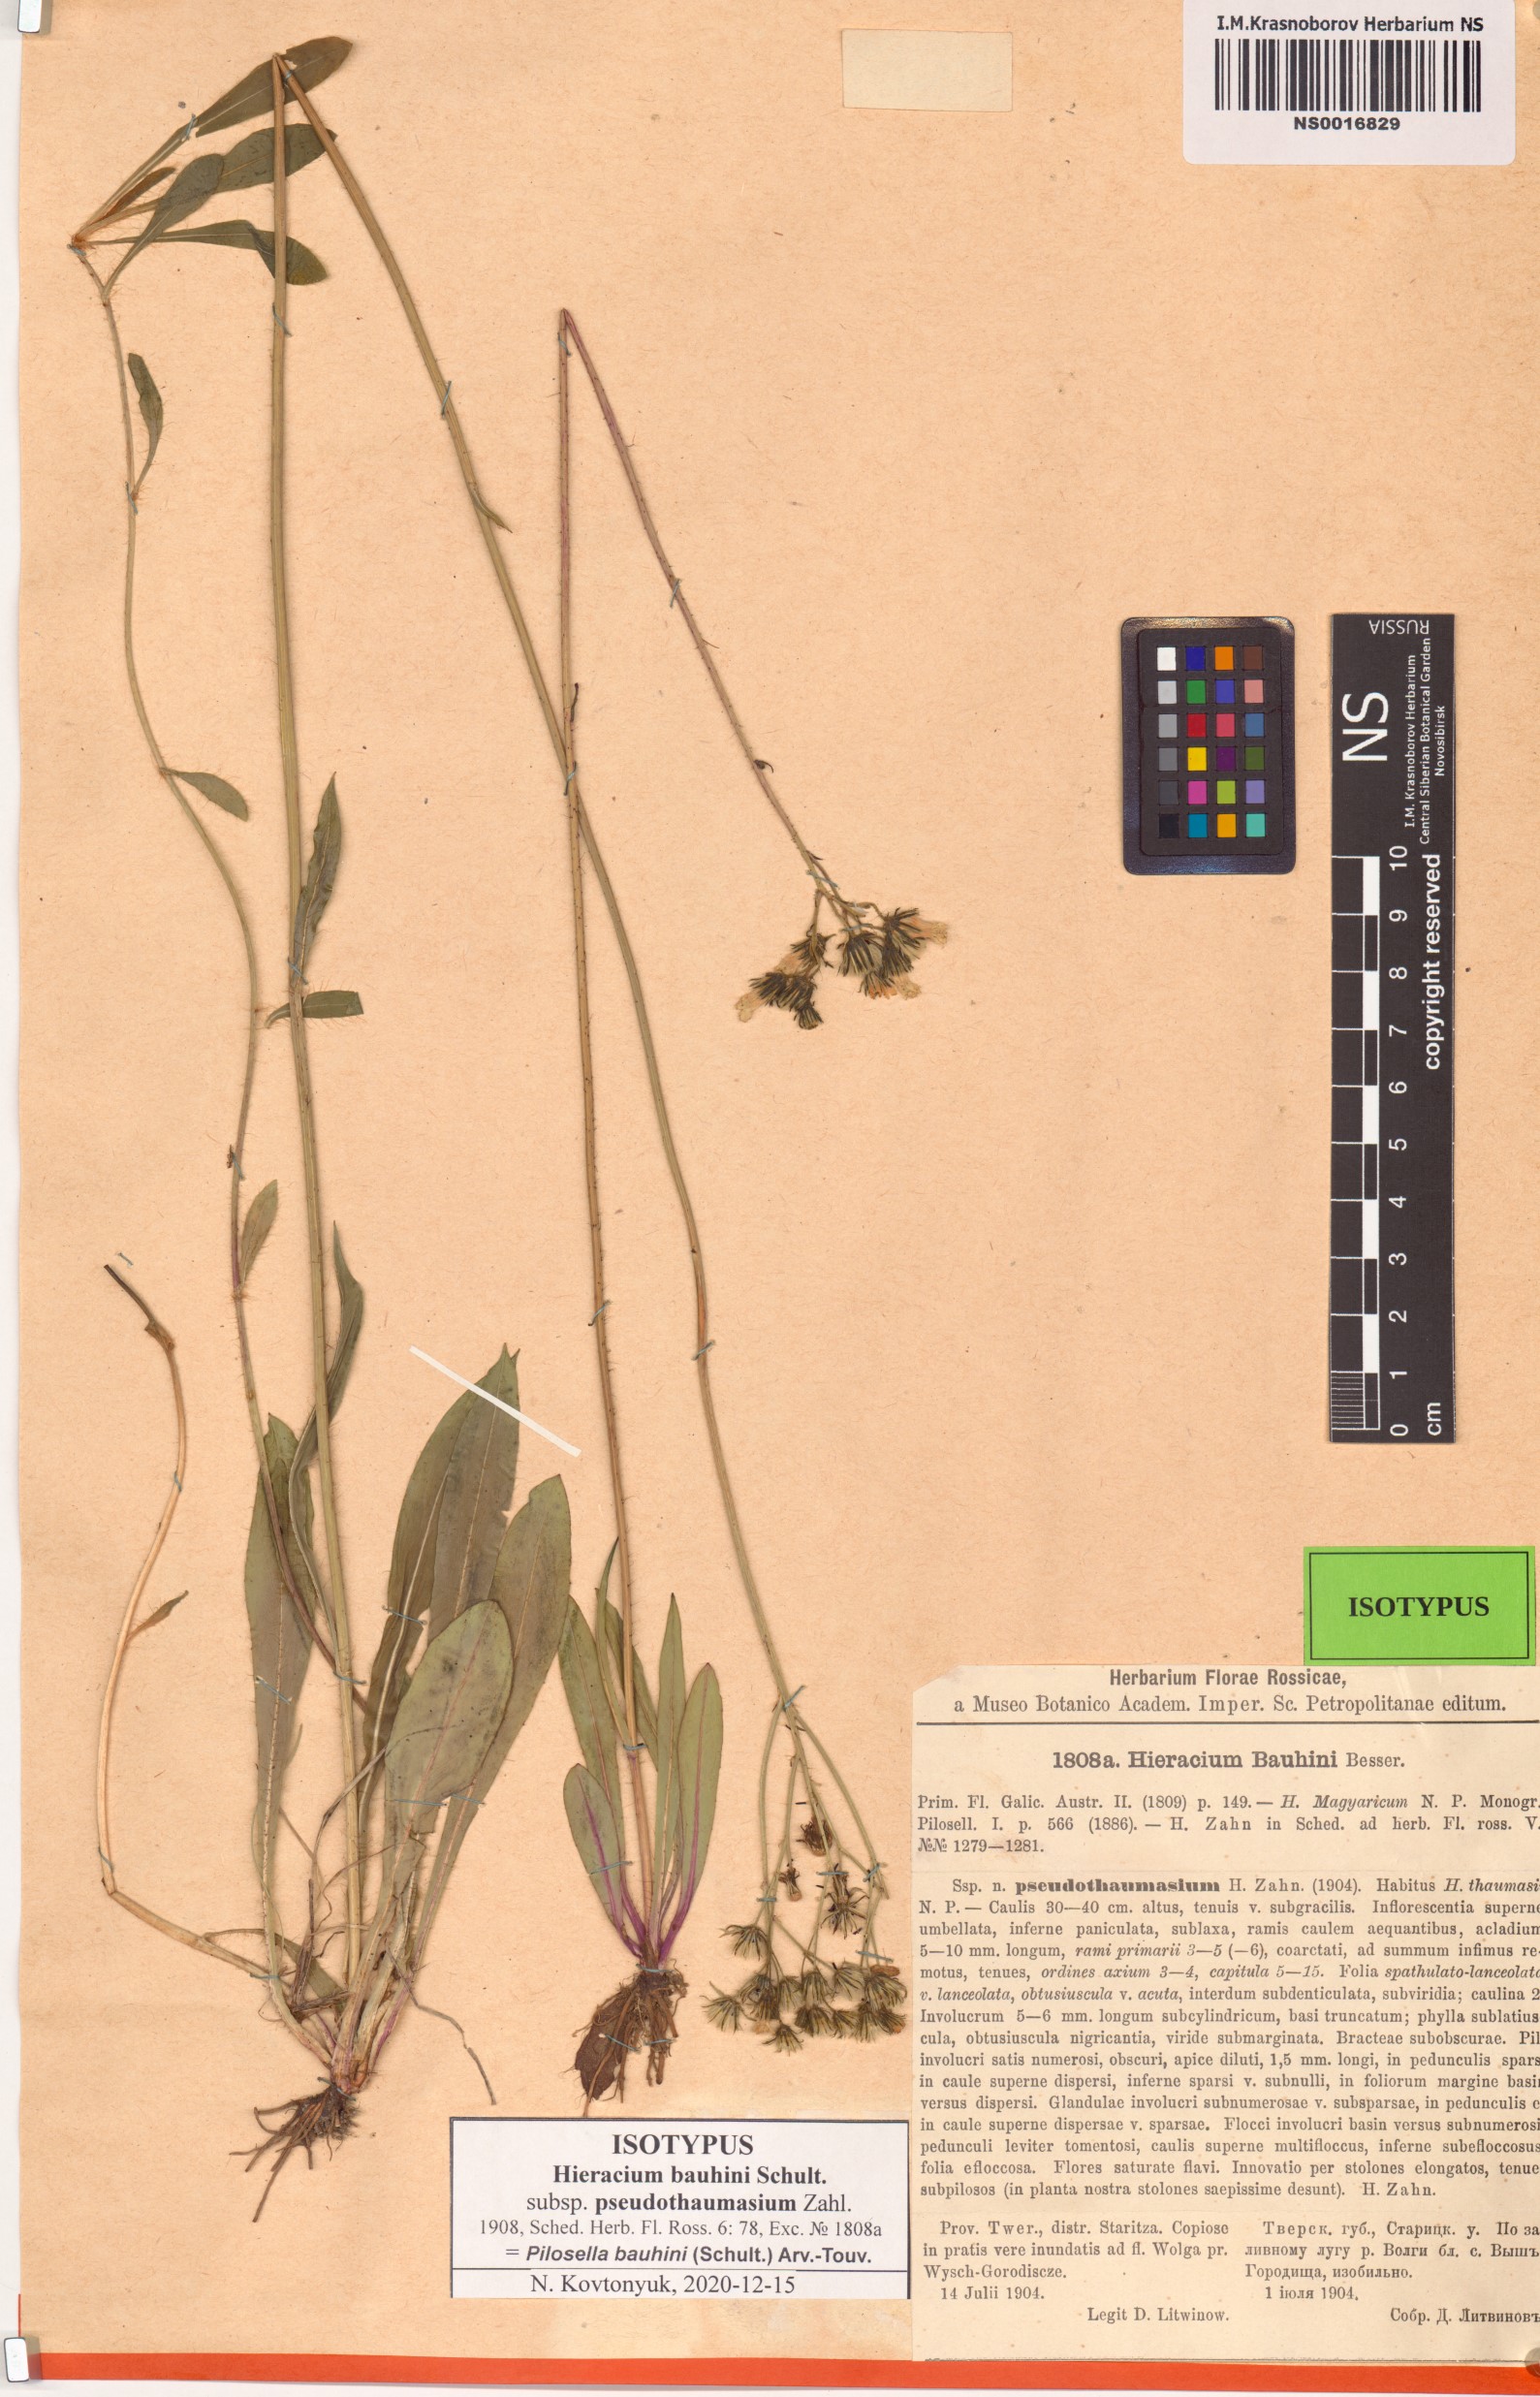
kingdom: Plantae
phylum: Tracheophyta
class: Magnoliopsida
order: Asterales
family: Asteraceae
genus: Pilosella
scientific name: Pilosella bauhini
